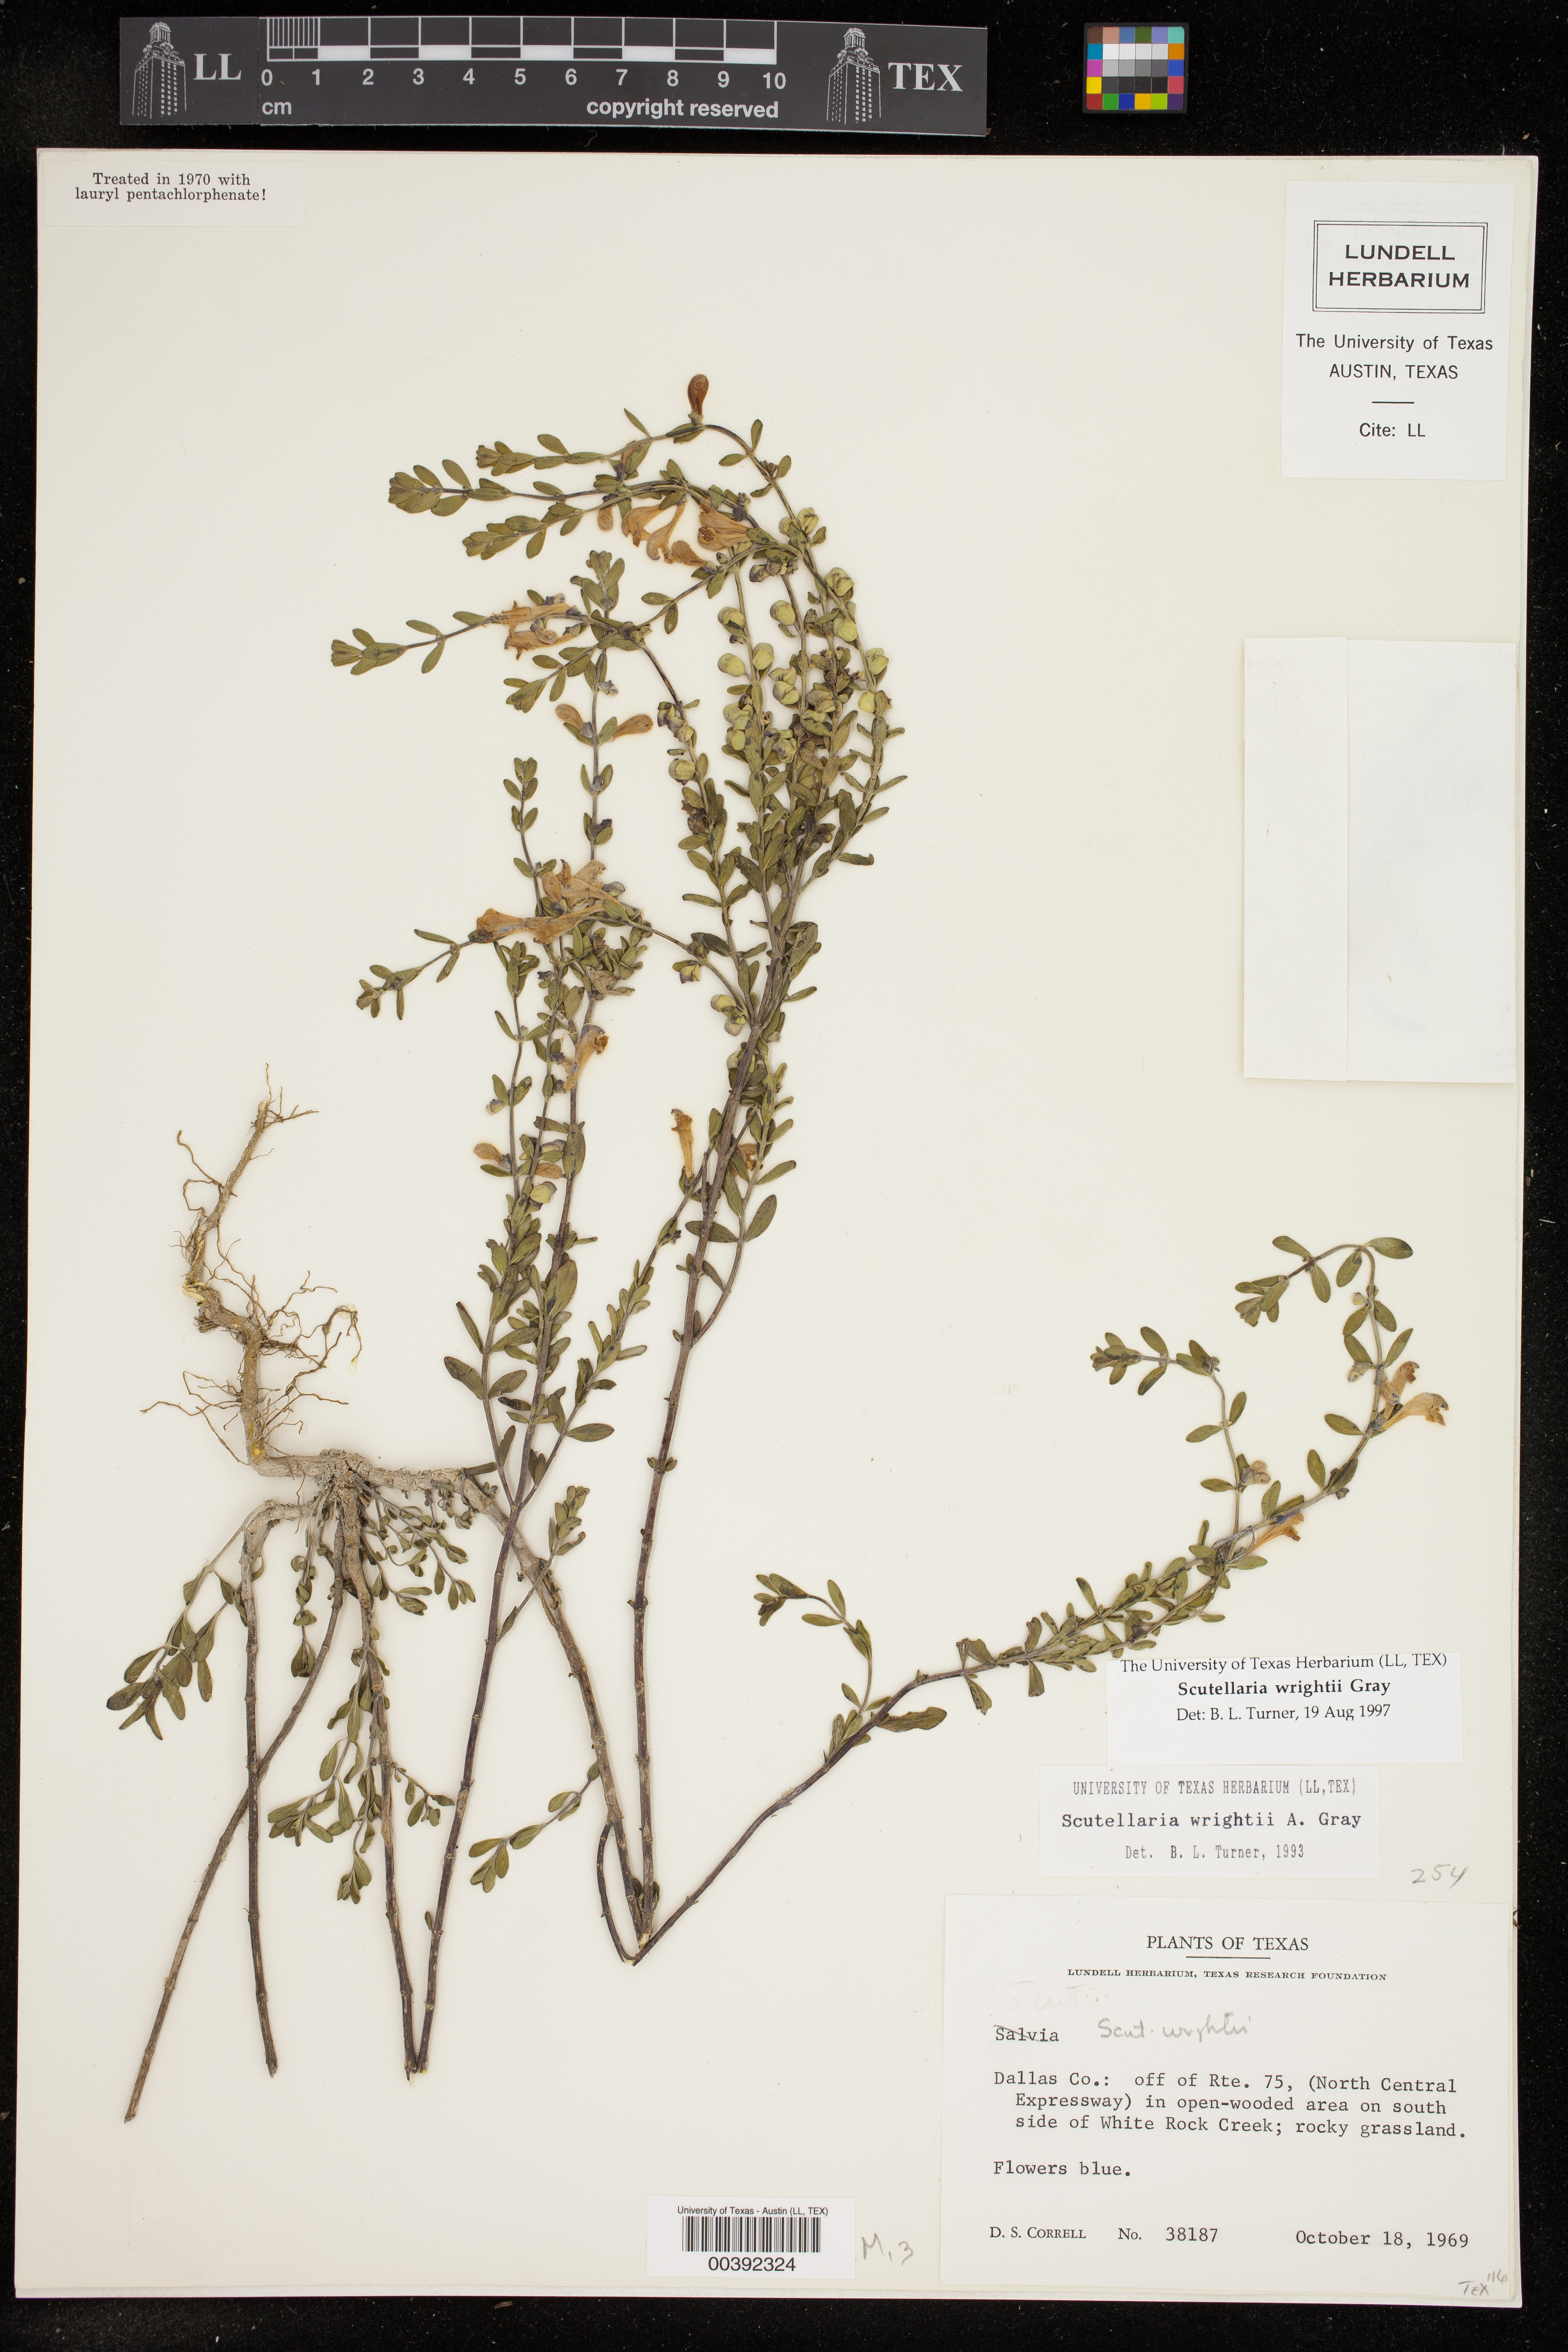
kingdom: Plantae
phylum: Tracheophyta
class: Magnoliopsida
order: Lamiales
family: Lamiaceae
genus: Scutellaria
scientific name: Scutellaria wrightii
